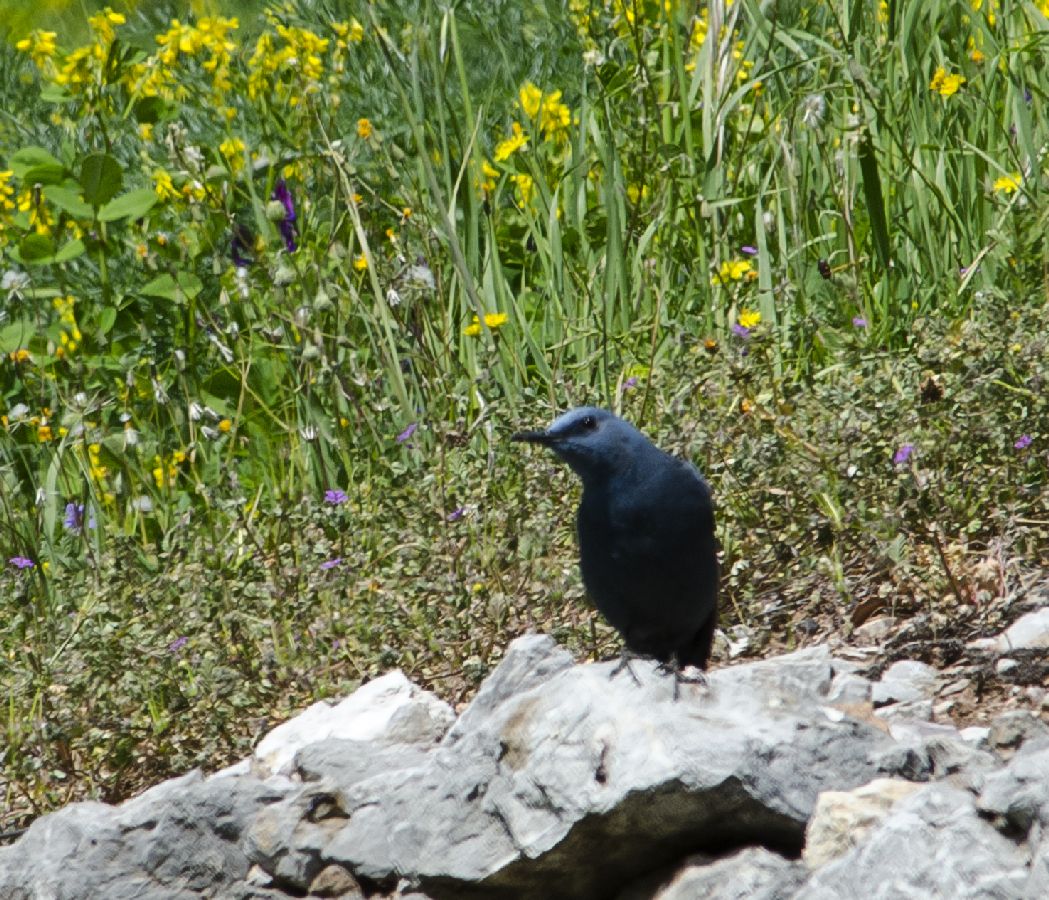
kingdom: Animalia
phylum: Chordata
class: Aves
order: Passeriformes
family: Muscicapidae
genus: Monticola
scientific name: Monticola solitarius
